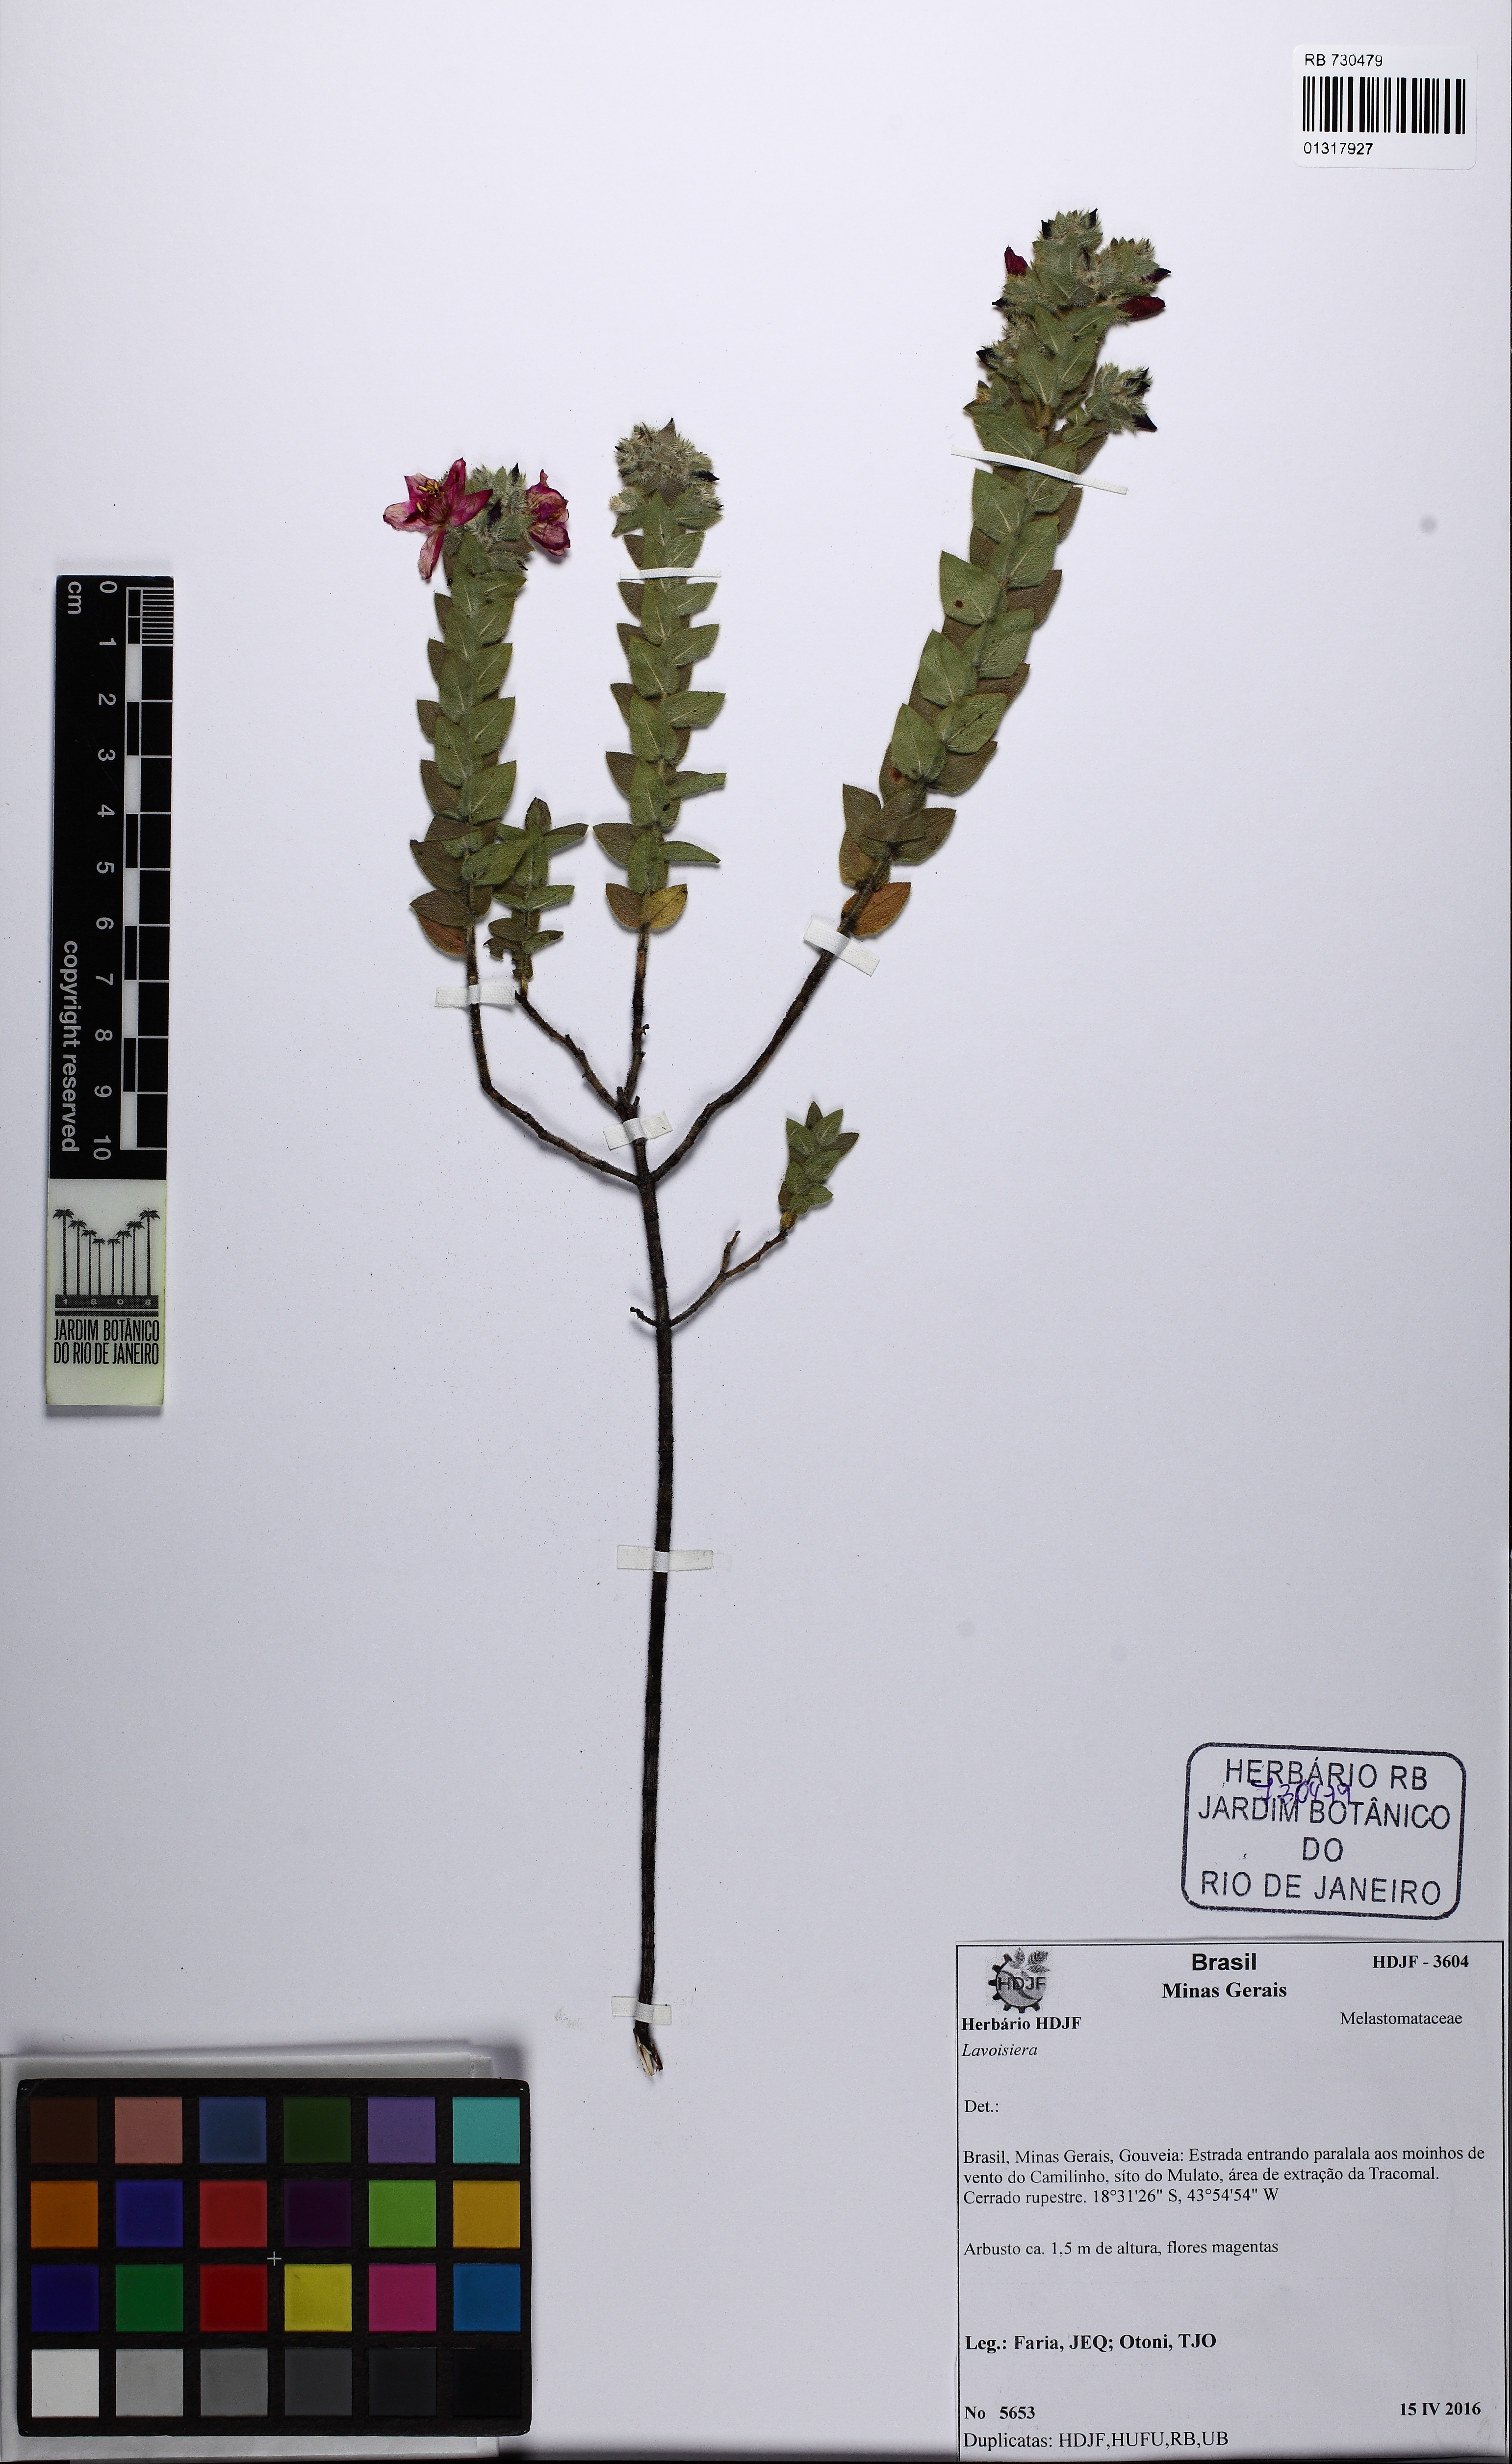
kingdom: Plantae
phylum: Tracheophyta
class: Magnoliopsida
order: Myrtales
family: Melastomataceae
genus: Microlicia
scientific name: Microlicia macrophylla
